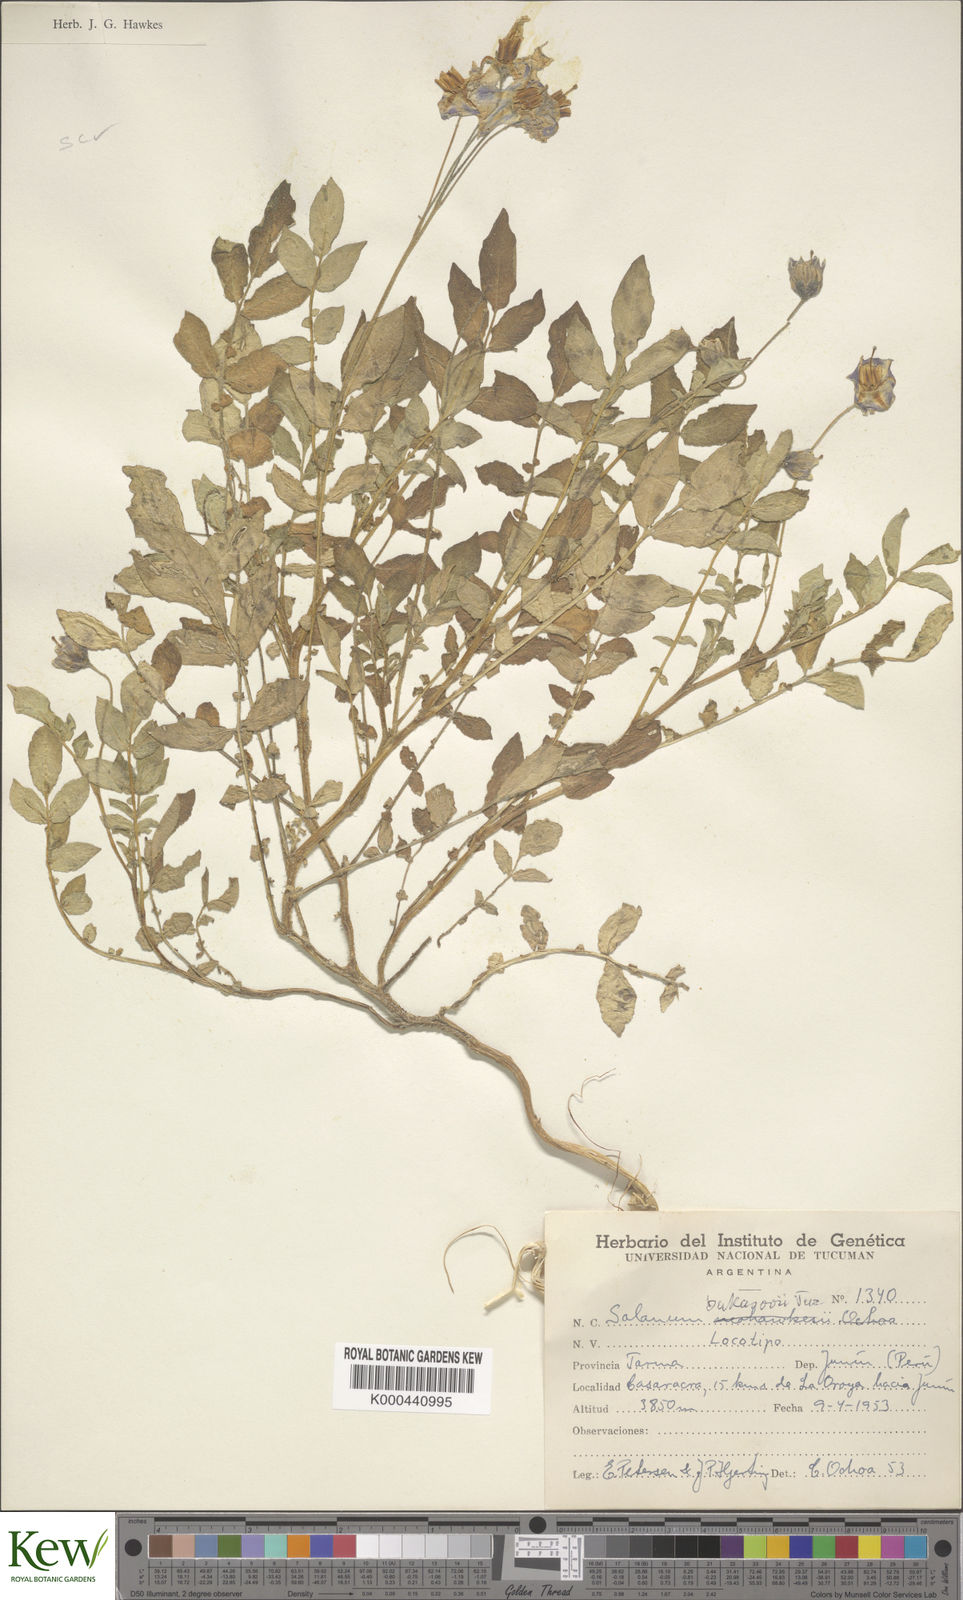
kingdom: Plantae
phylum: Tracheophyta
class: Magnoliopsida
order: Solanales
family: Solanaceae
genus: Solanum
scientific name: Solanum candolleanum
